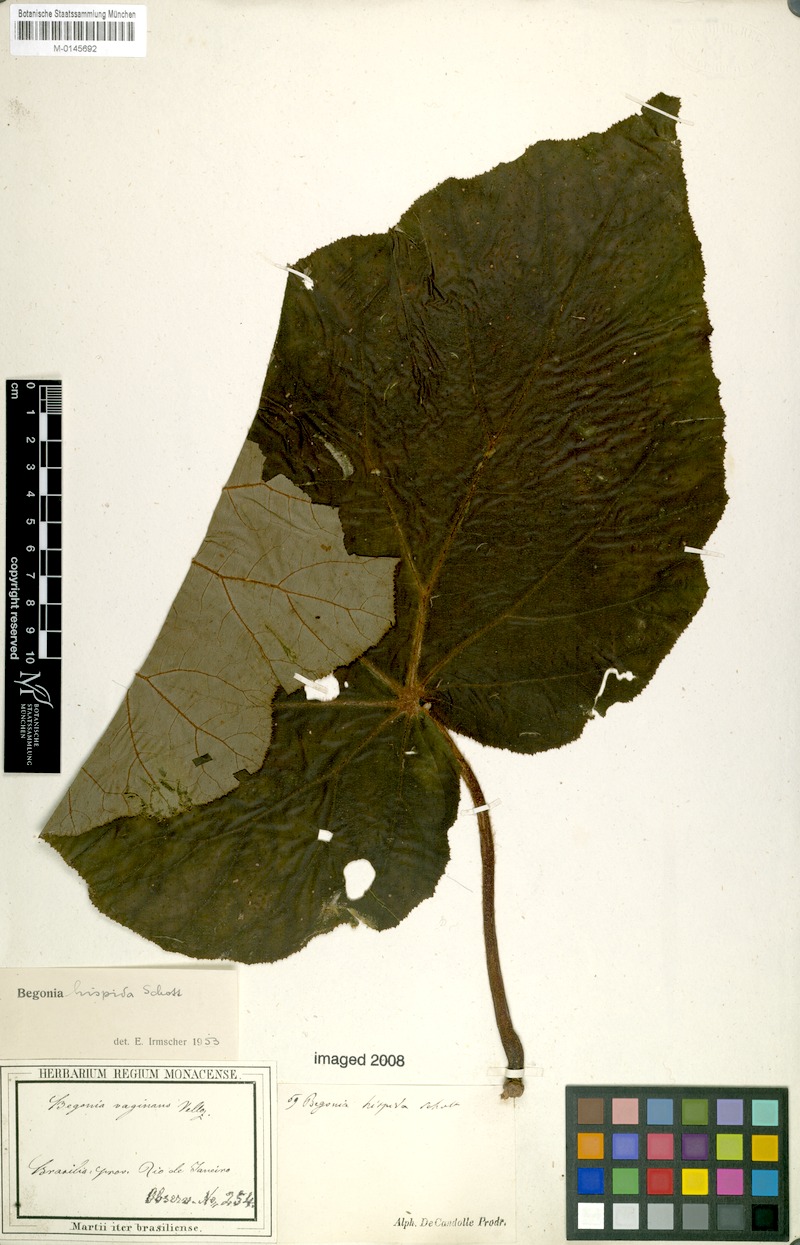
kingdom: Plantae
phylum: Tracheophyta
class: Magnoliopsida
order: Cucurbitales
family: Begoniaceae
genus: Begonia
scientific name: Begonia hispida
